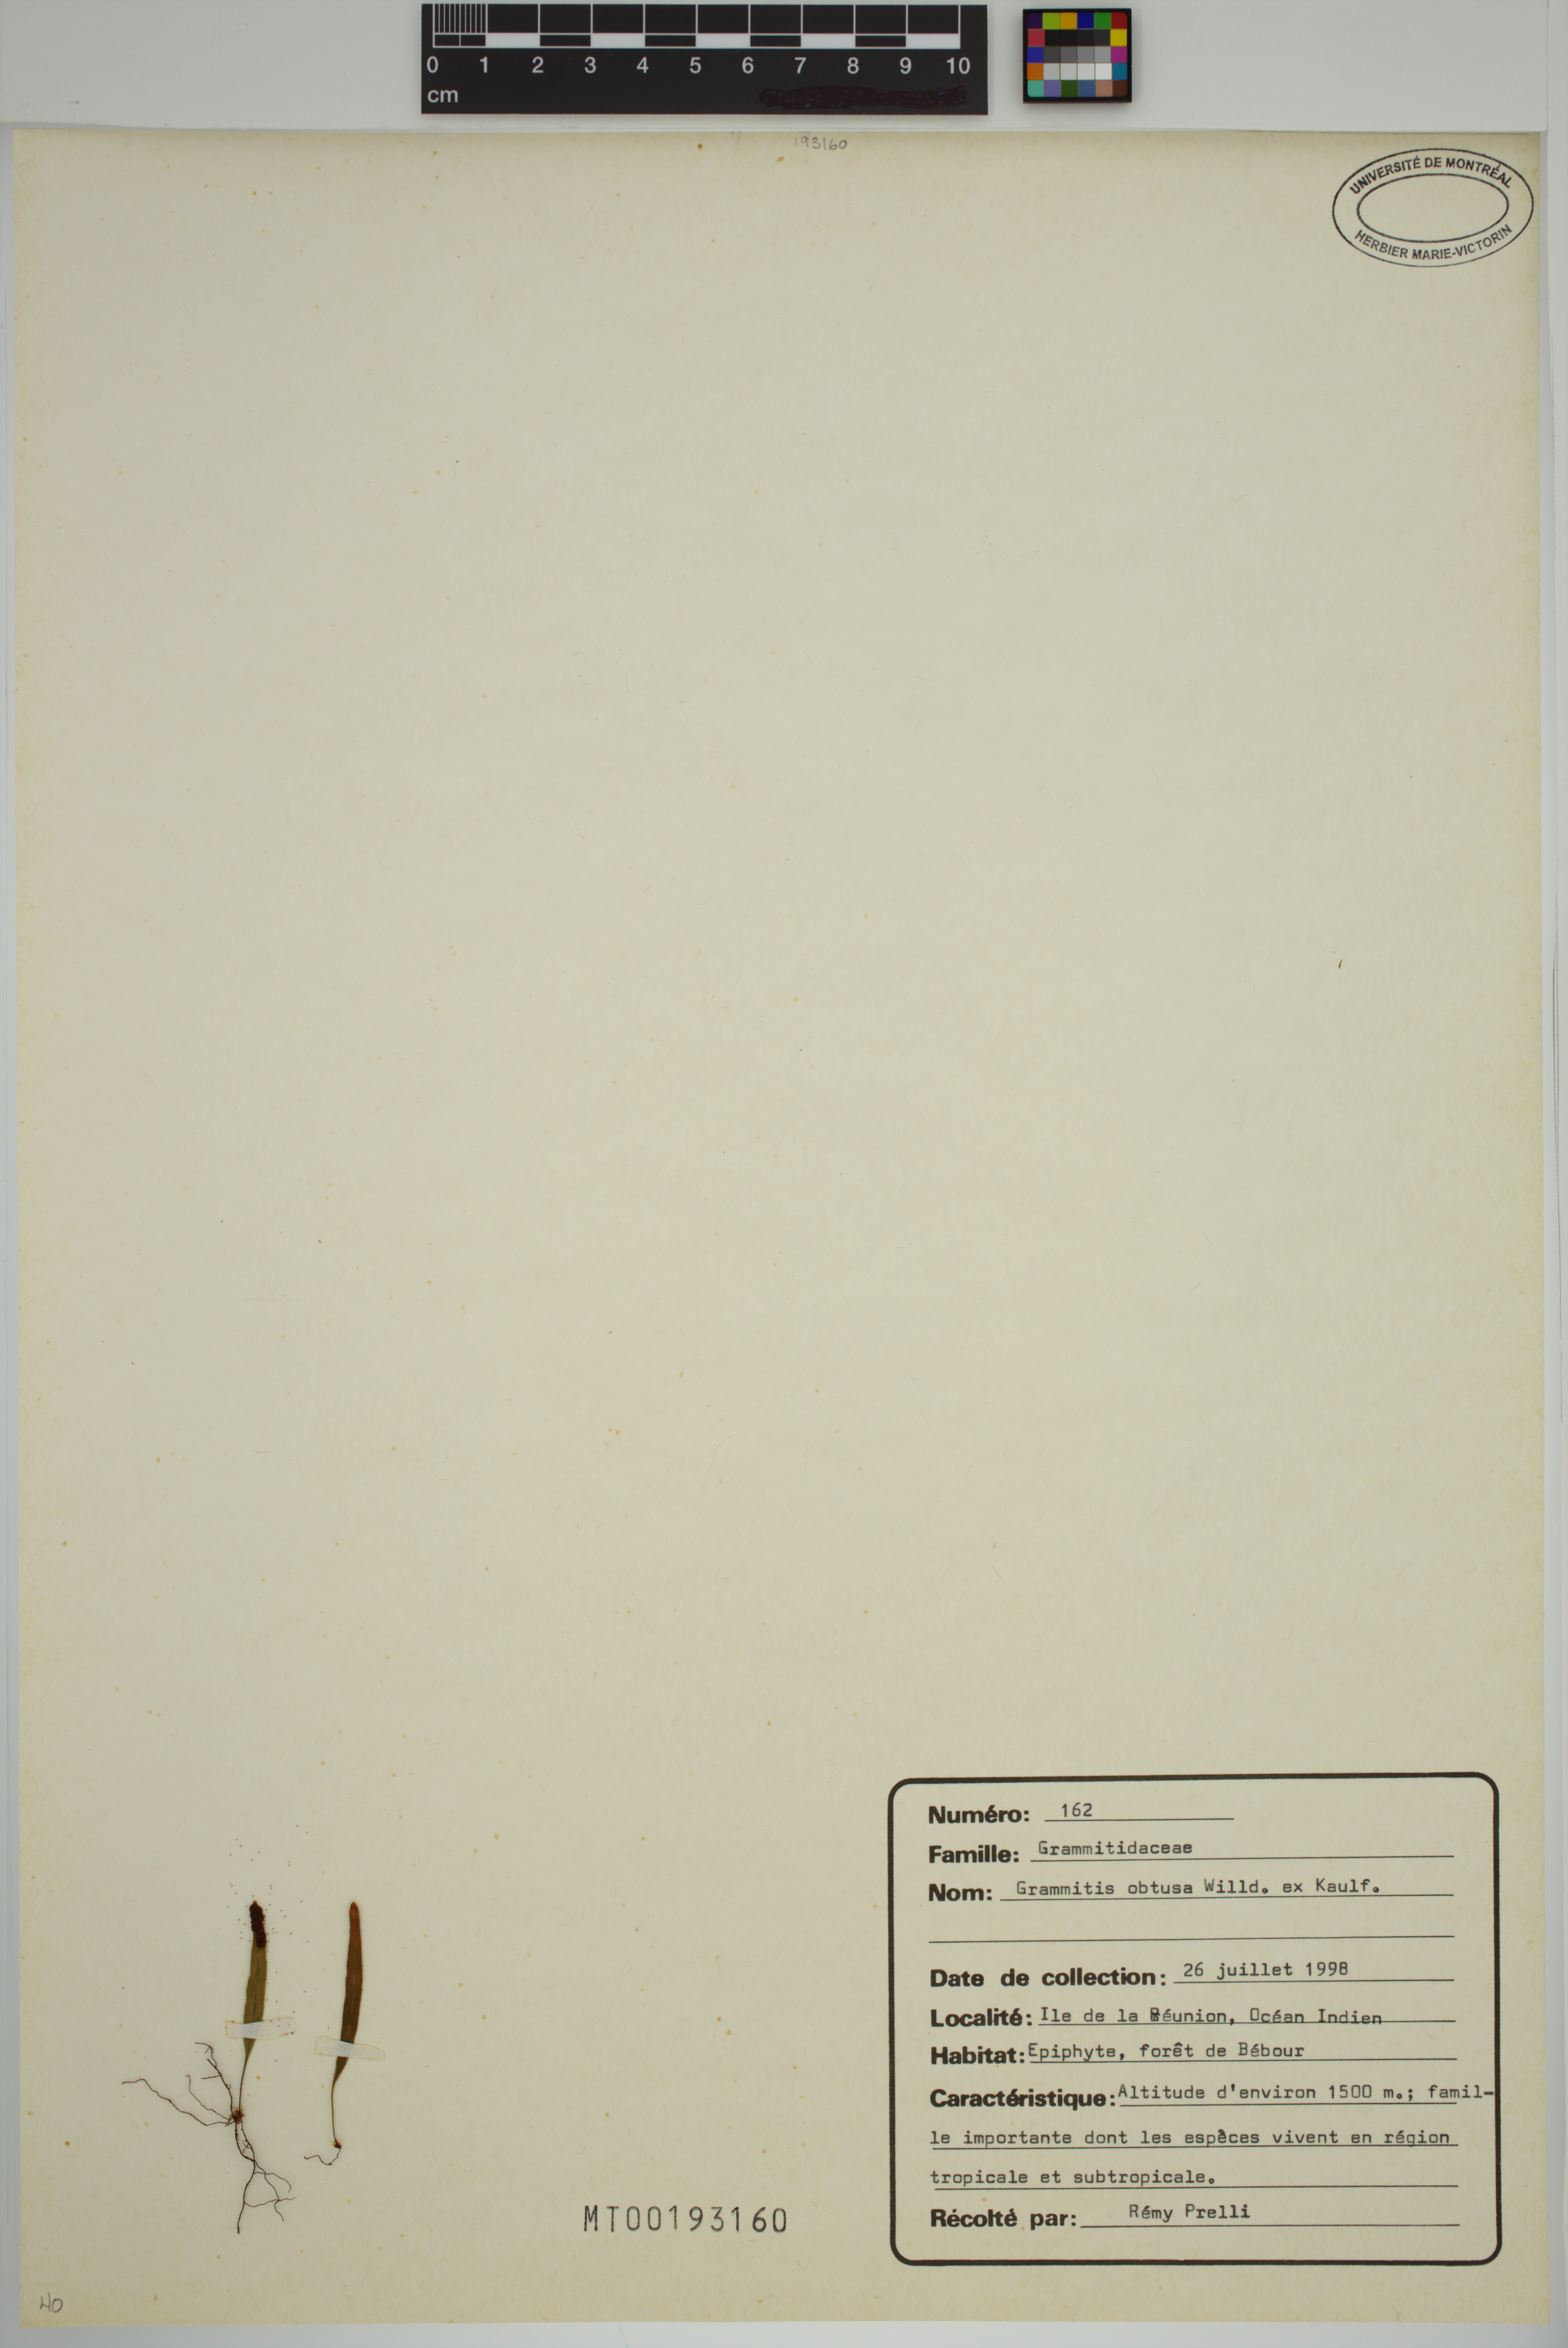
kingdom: Plantae
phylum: Tracheophyta
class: Polypodiopsida
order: Polypodiales
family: Polypodiaceae
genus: Grammitis
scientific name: Grammitis obtusa
